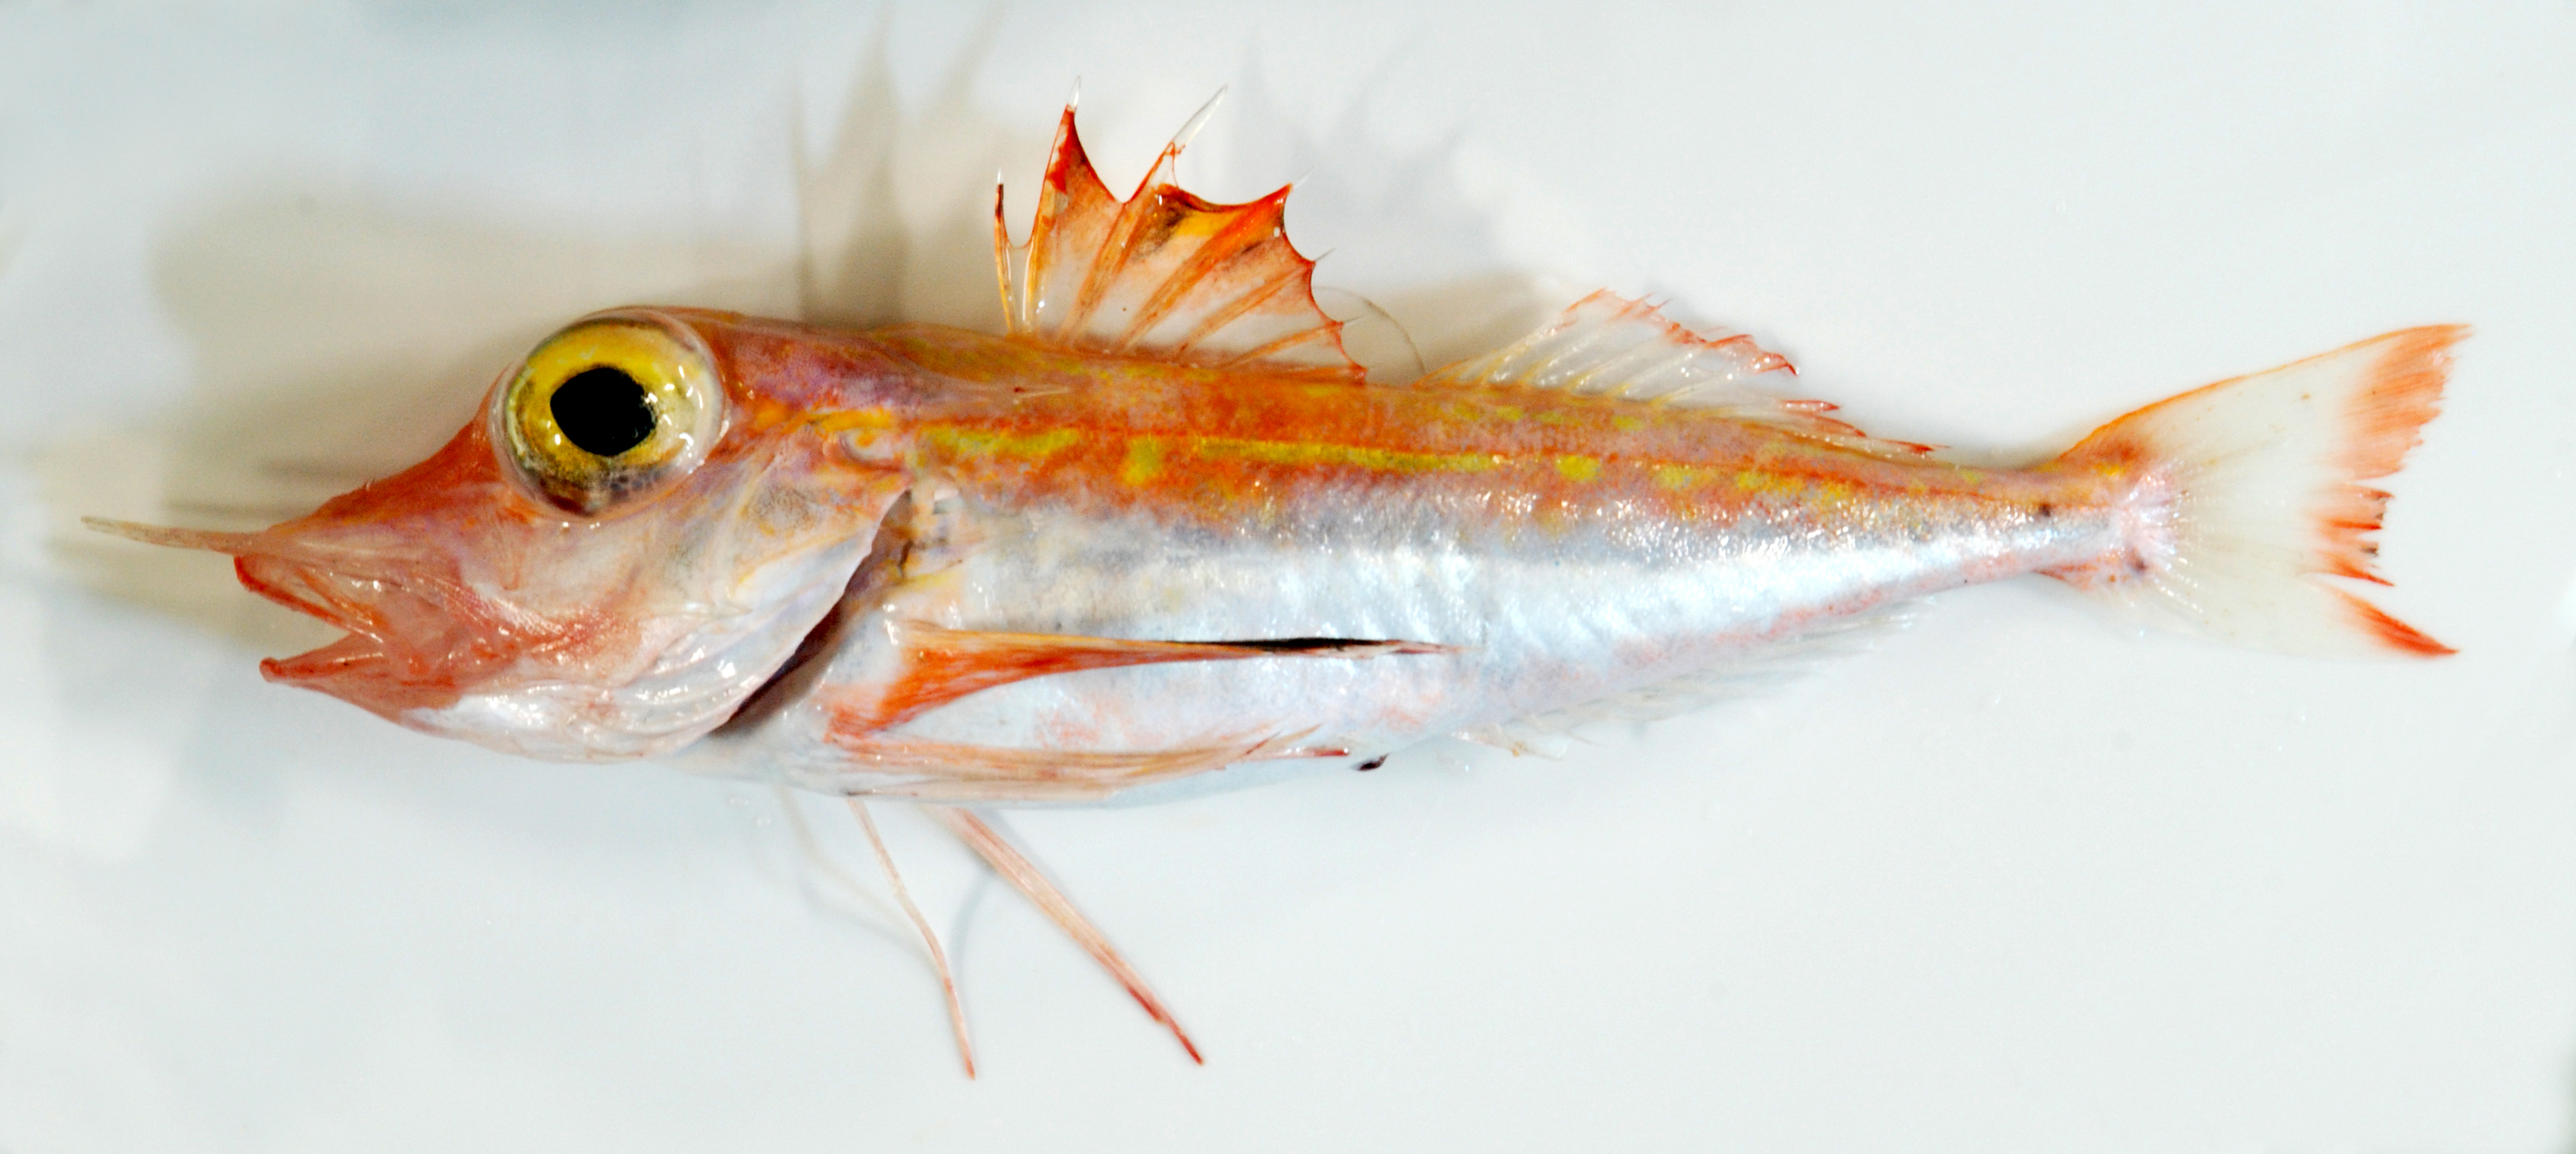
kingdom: Animalia
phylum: Chordata
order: Scorpaeniformes
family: Triglidae
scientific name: Triglidae
